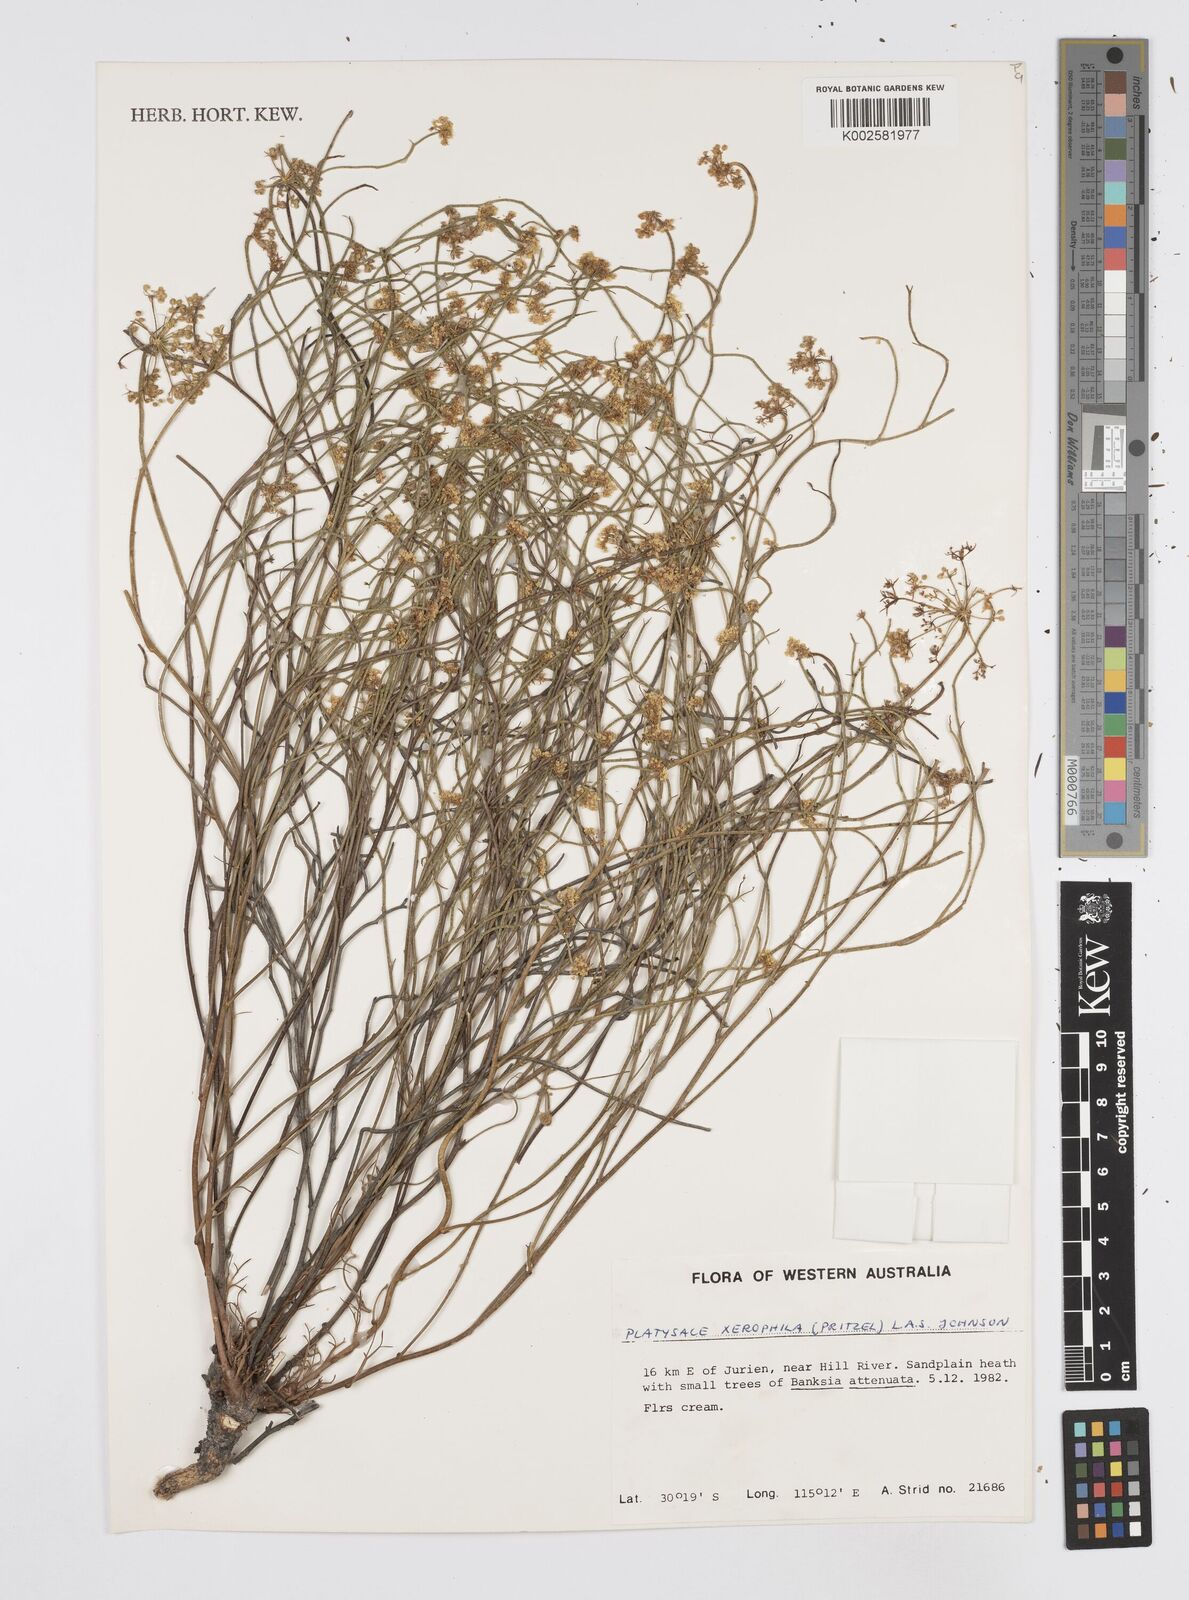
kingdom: Plantae
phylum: Tracheophyta
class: Magnoliopsida
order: Apiales
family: Apiaceae
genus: Platysace
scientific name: Platysace xerophila
